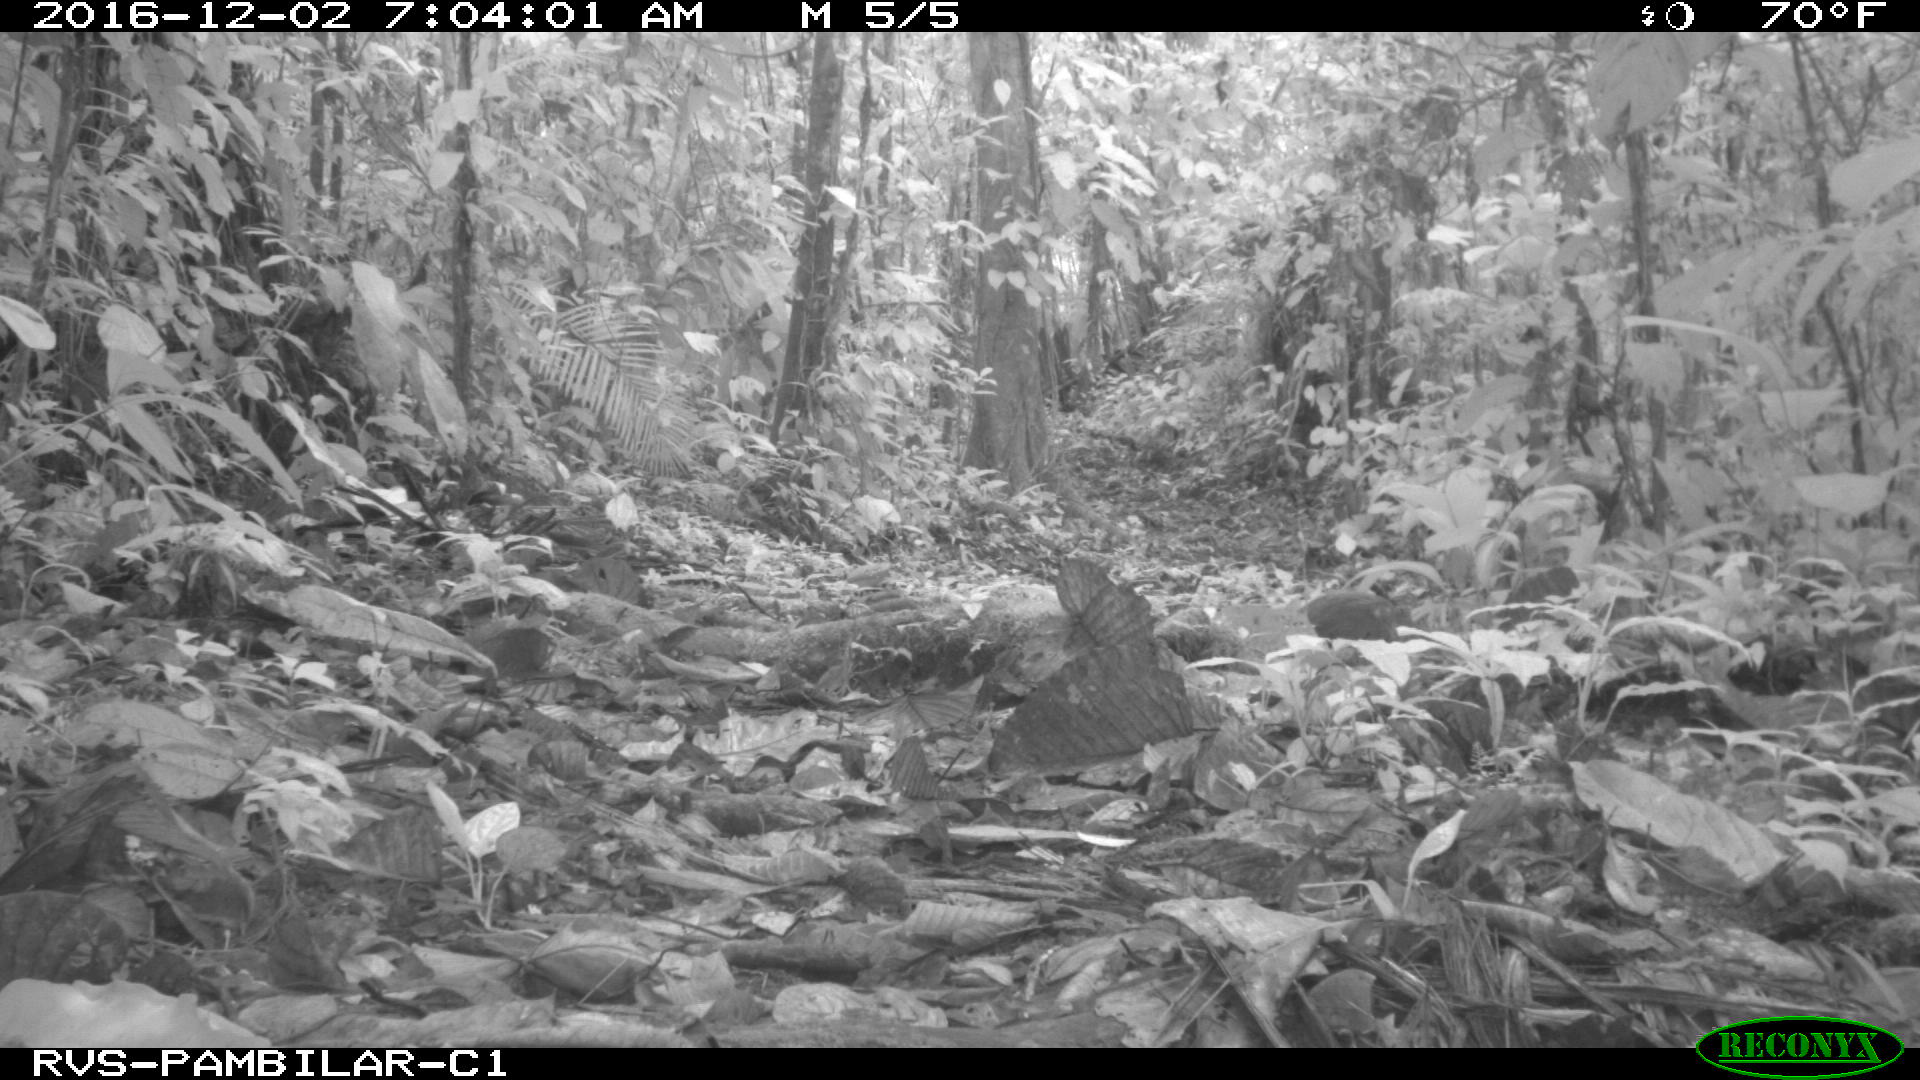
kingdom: Animalia
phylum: Chordata
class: Mammalia
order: Rodentia
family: Dasyproctidae
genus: Dasyprocta
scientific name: Dasyprocta punctata
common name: Central american agouti
